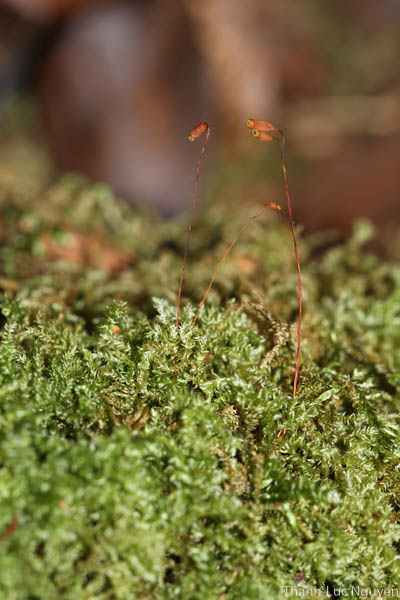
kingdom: Plantae
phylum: Bryophyta
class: Bryopsida
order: Hypnales
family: Hylocomiaceae
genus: Macrothamnium
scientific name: Macrothamnium macrocarpum
